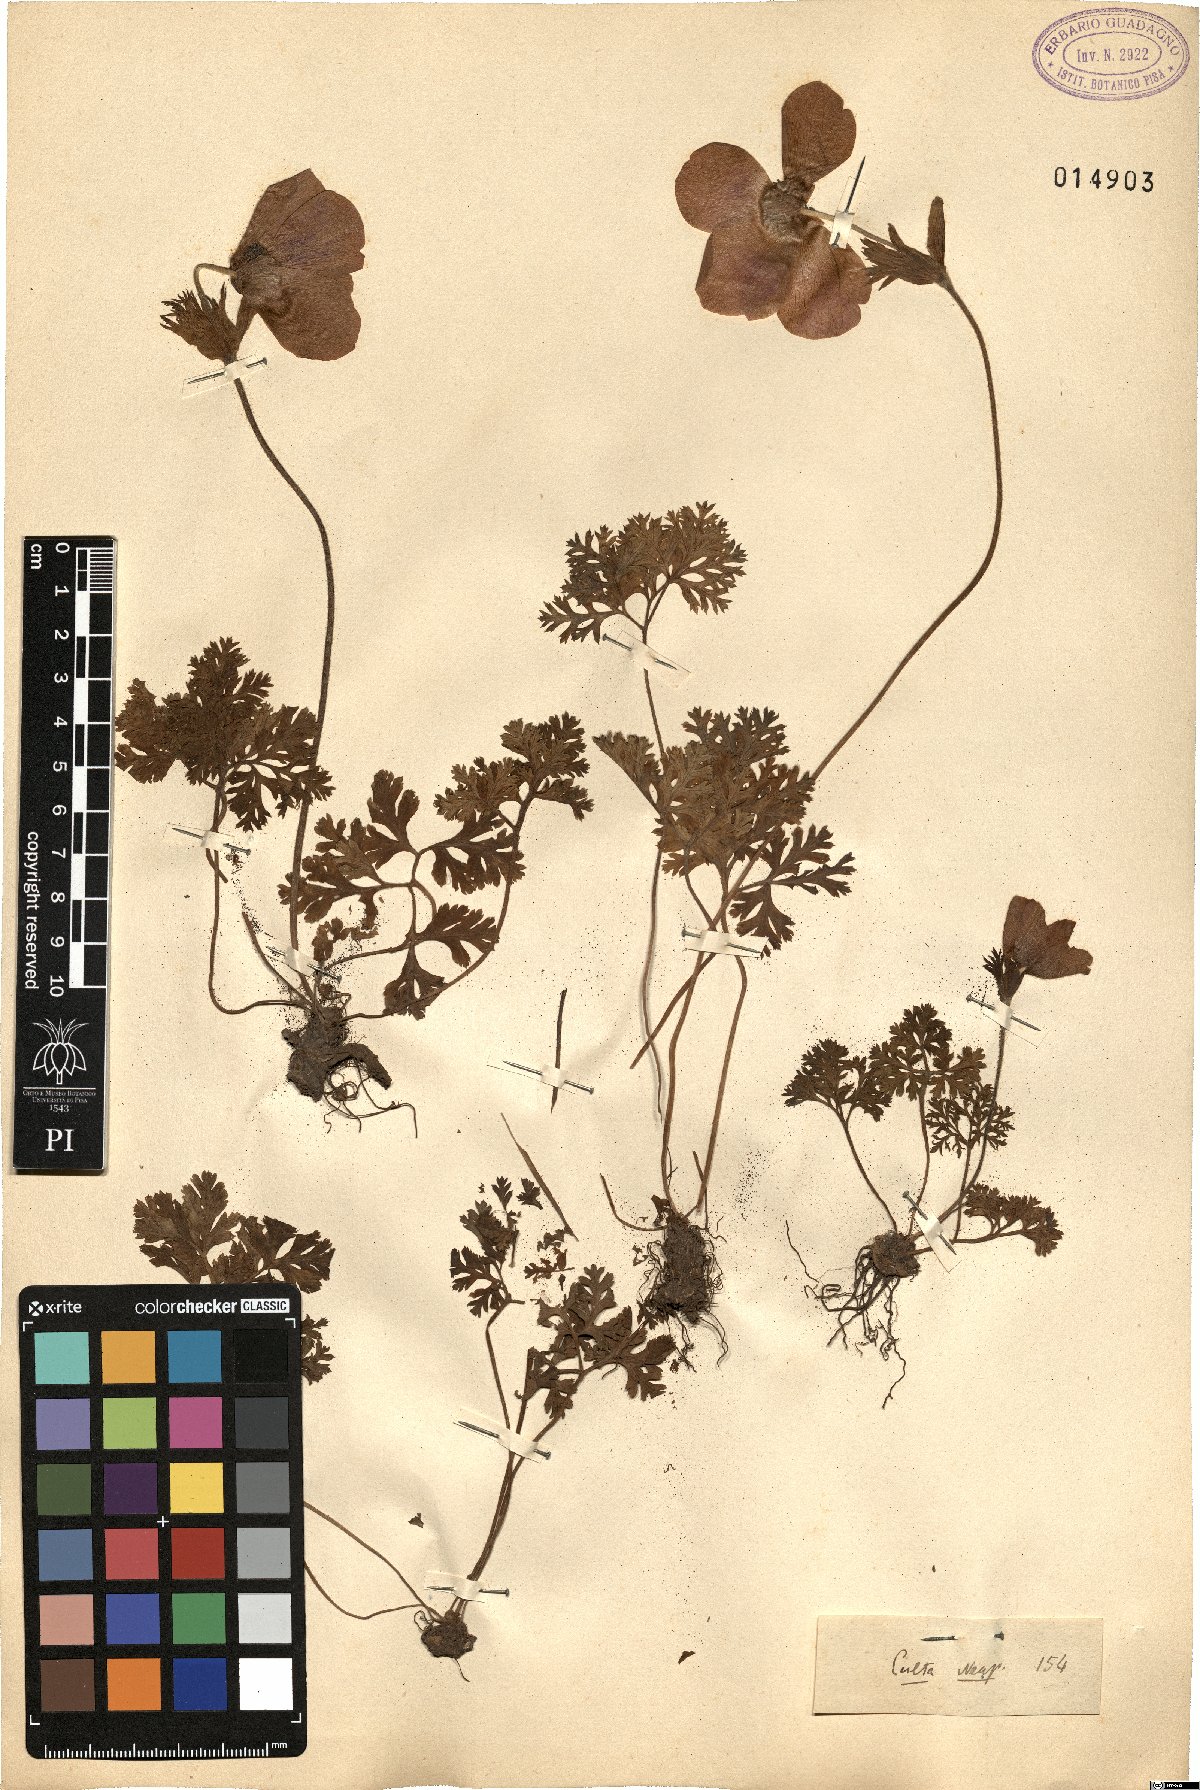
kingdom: Plantae
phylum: Tracheophyta
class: Magnoliopsida
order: Ranunculales
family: Ranunculaceae
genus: Anemone
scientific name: Anemone coronaria
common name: Poppy anemone
